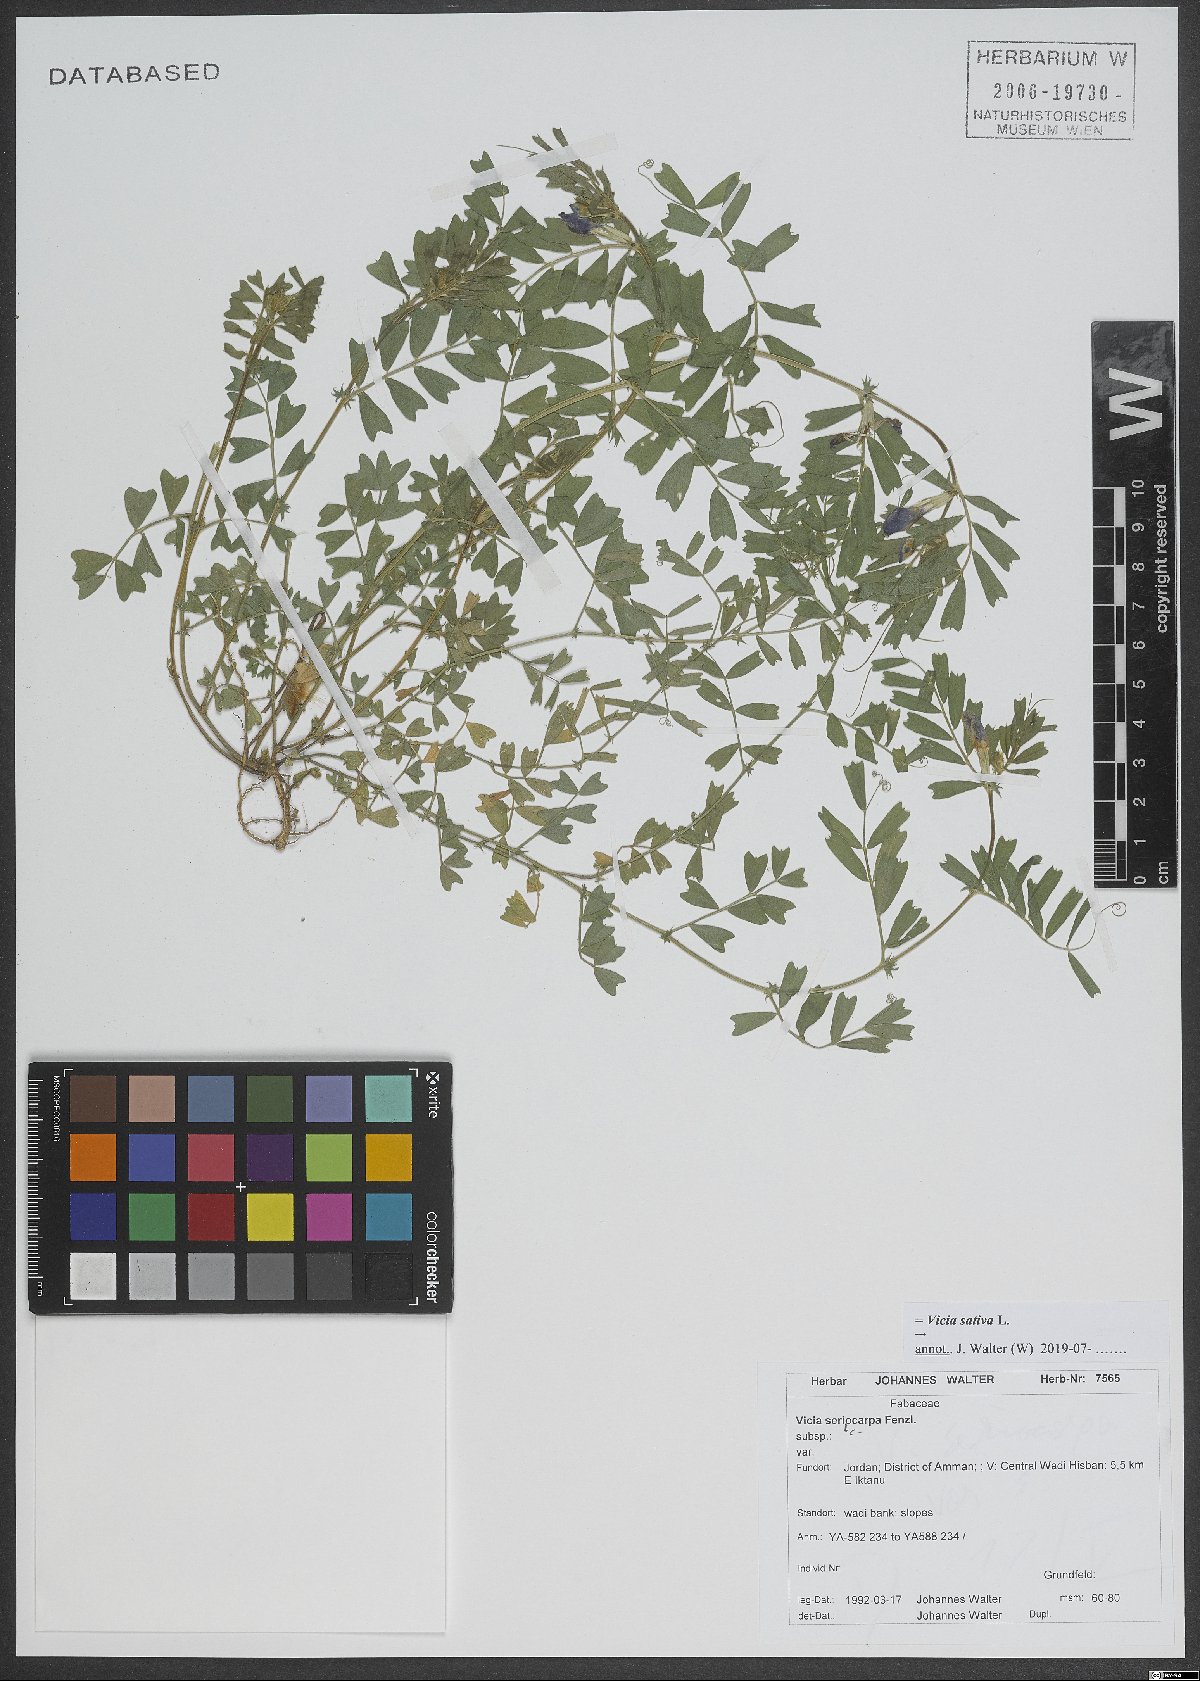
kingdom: Plantae
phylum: Tracheophyta
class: Magnoliopsida
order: Fabales
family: Fabaceae
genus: Vicia
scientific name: Vicia sativa
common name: Garden vetch
